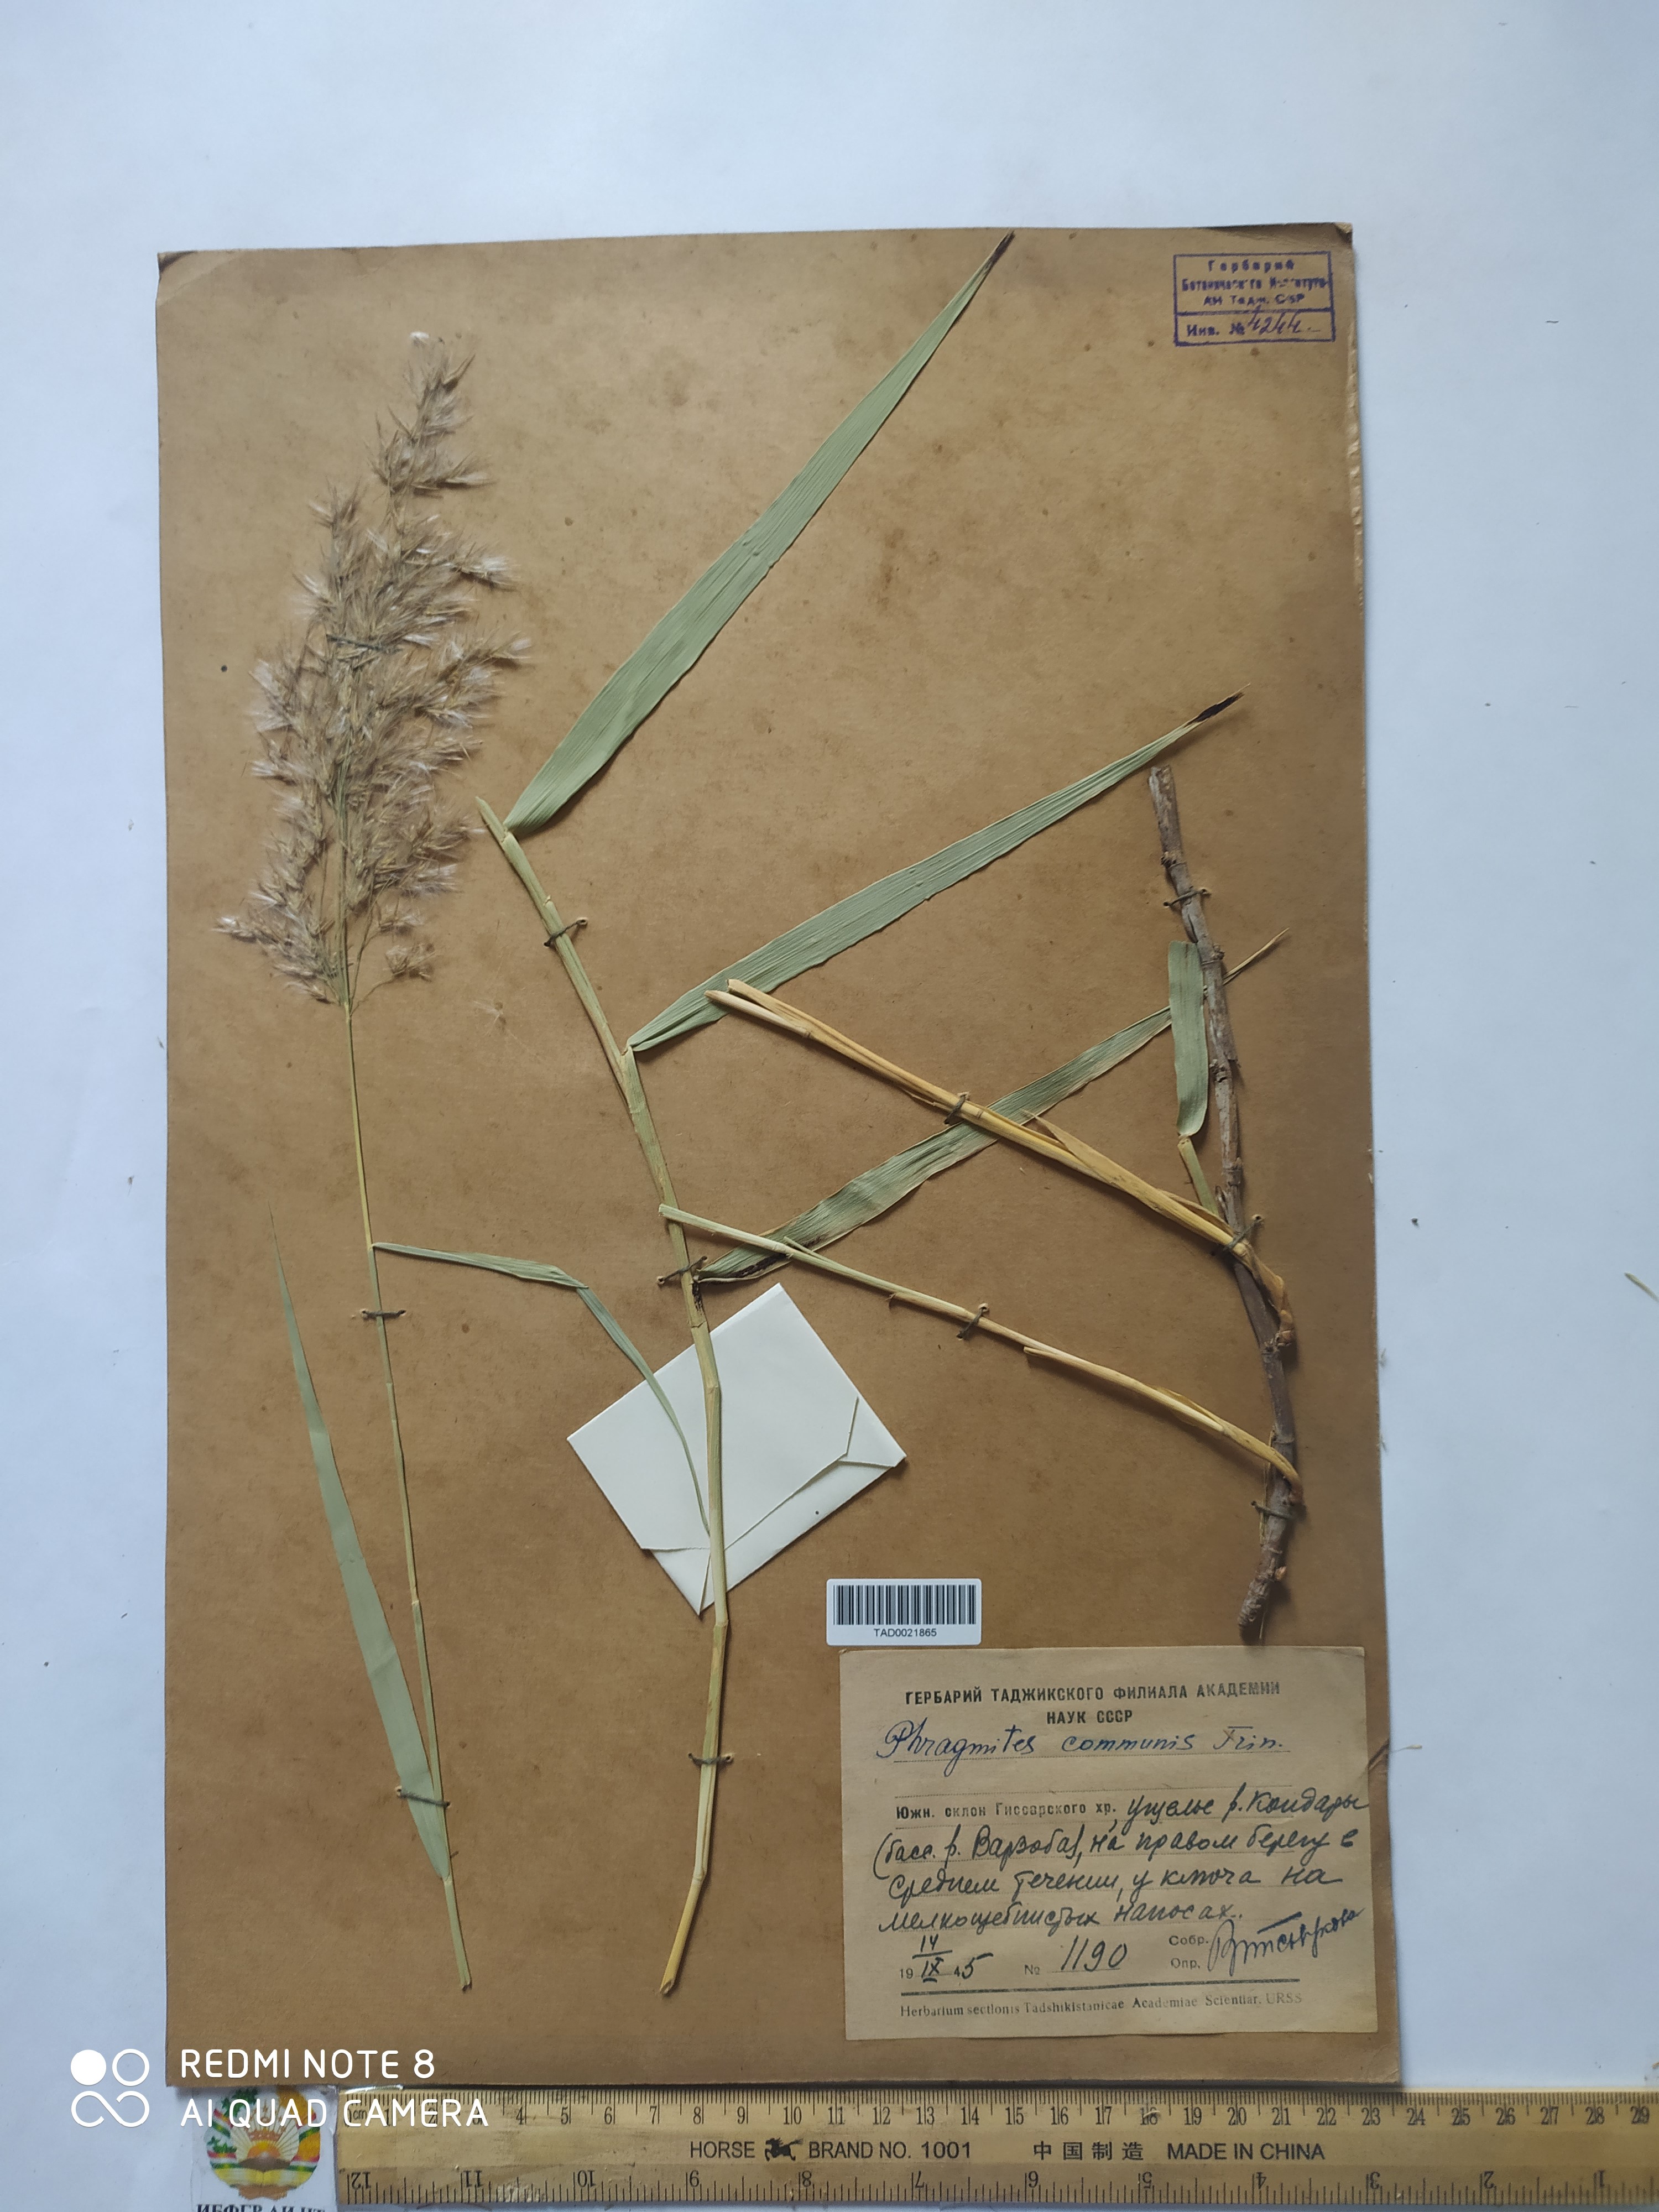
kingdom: Plantae
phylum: Tracheophyta
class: Liliopsida
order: Poales
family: Poaceae
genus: Phragmites
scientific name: Phragmites australis
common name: Common reed
